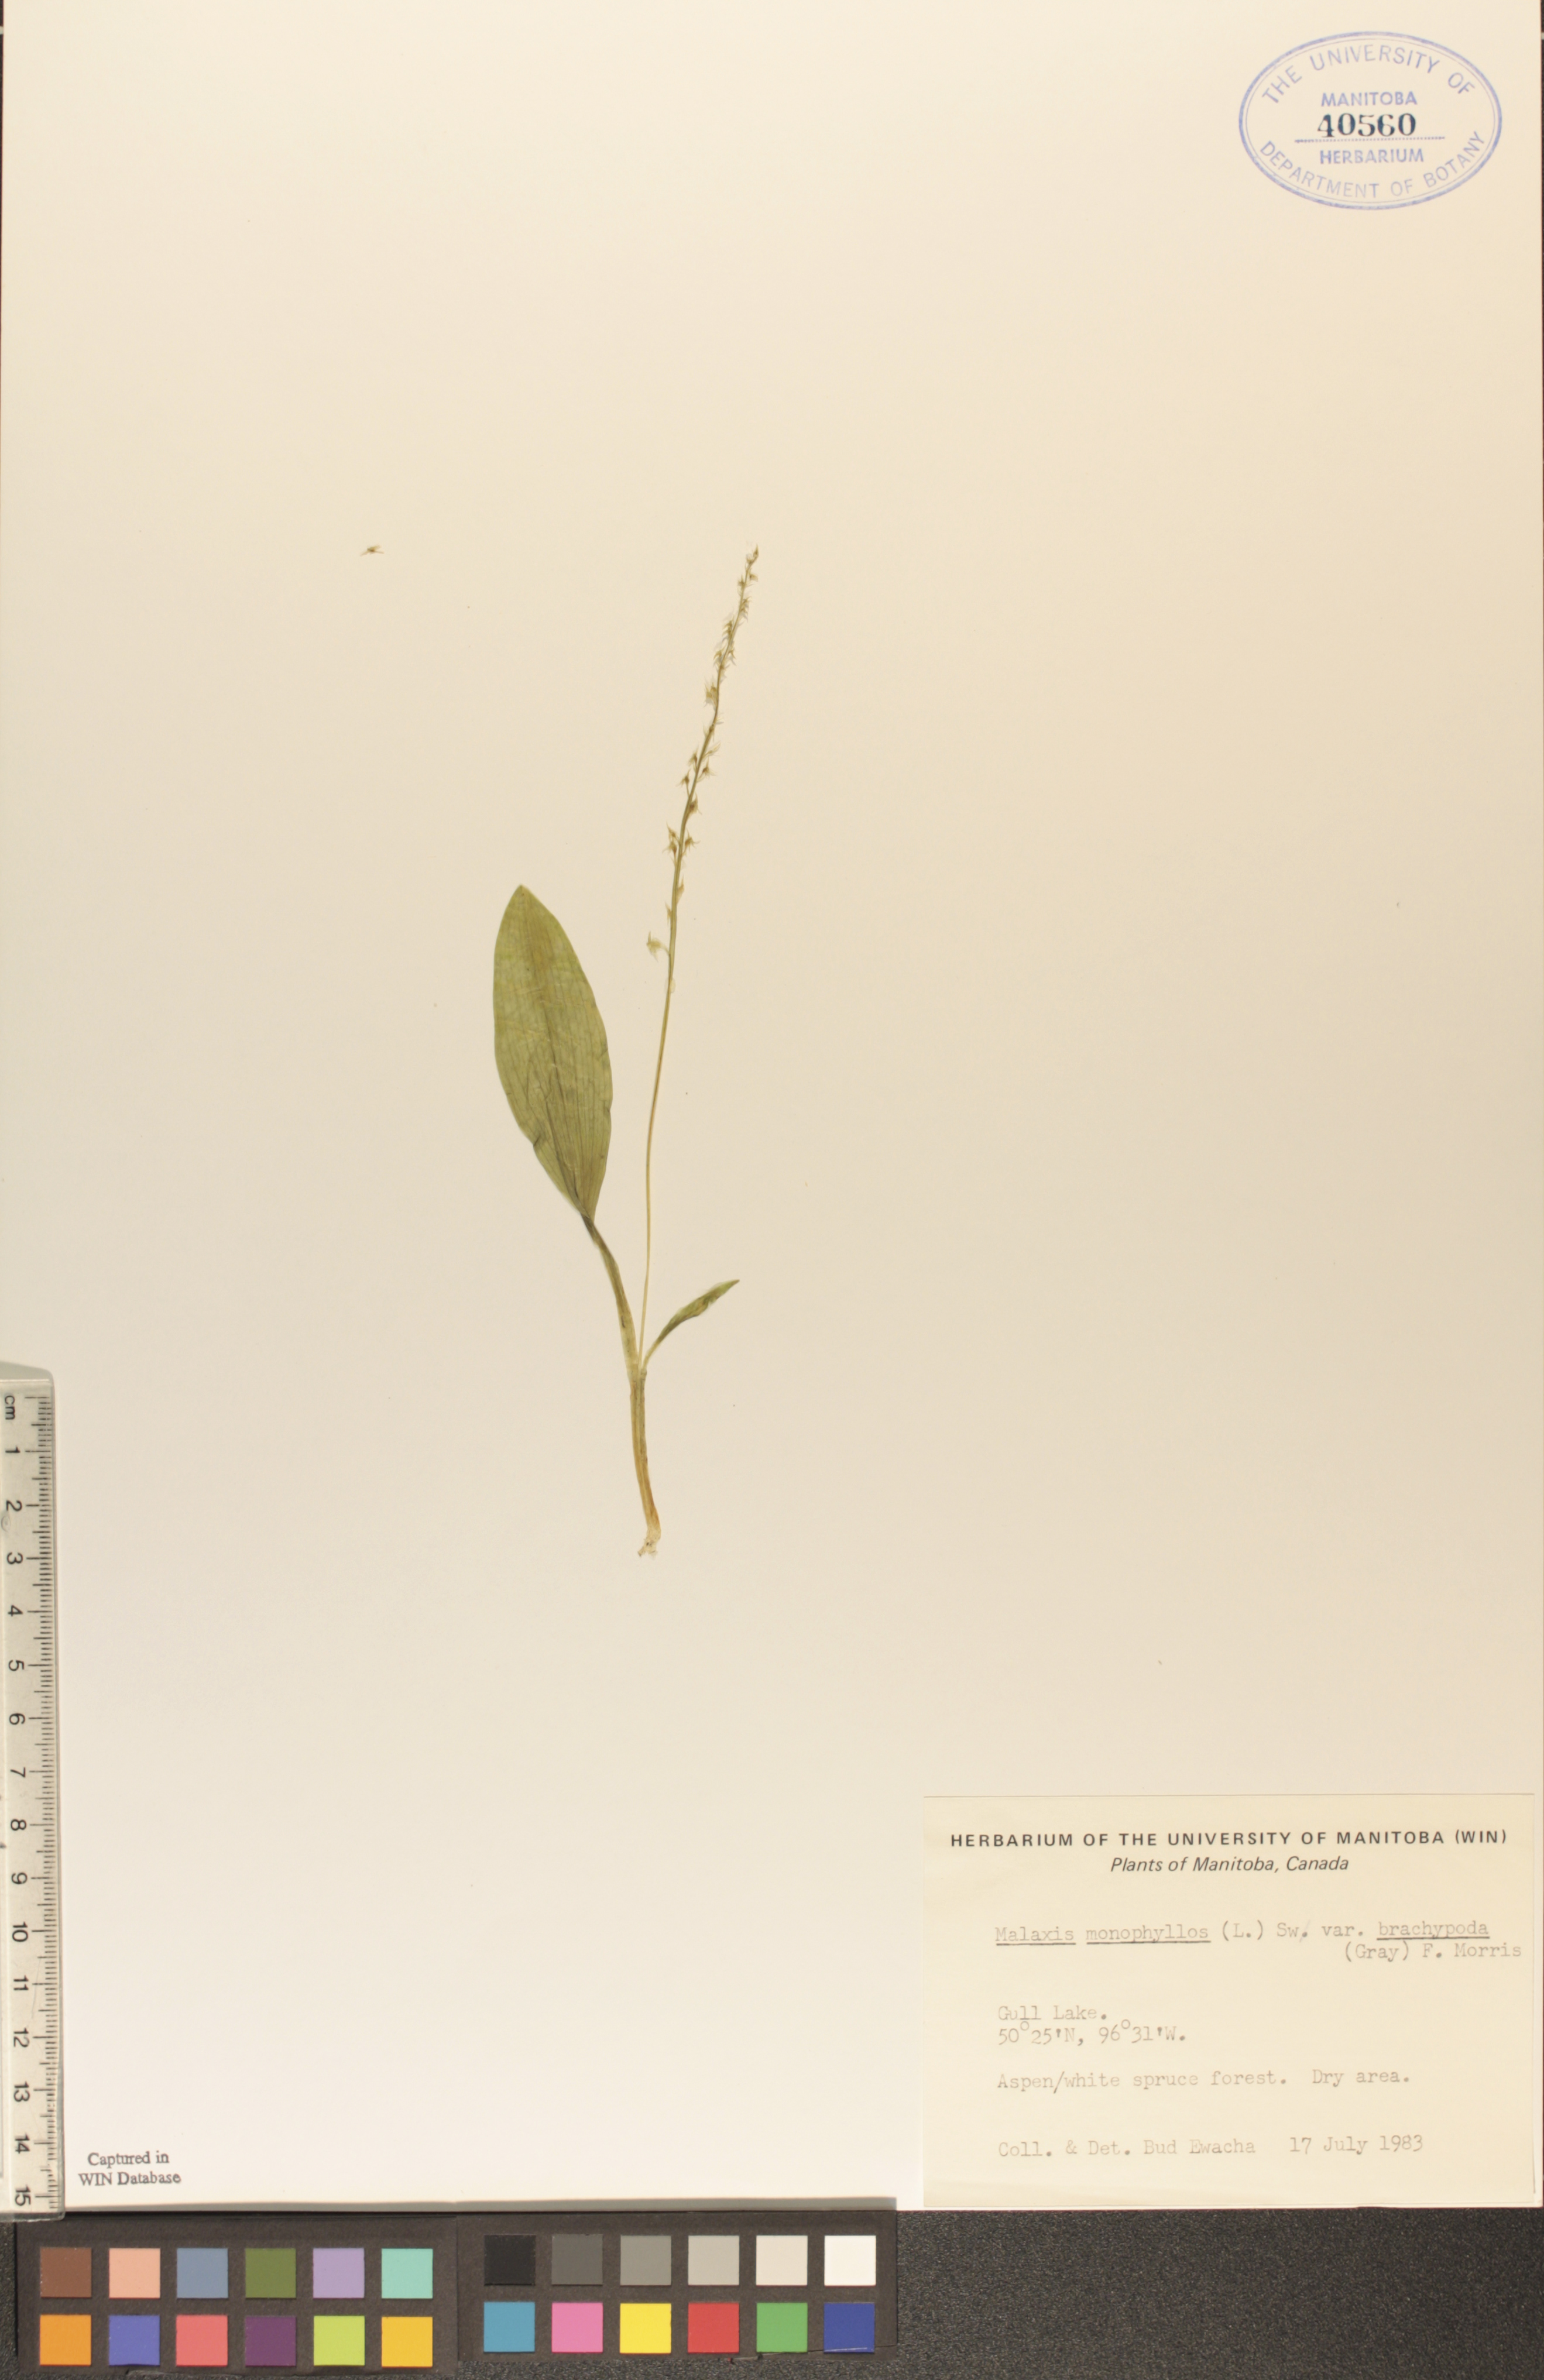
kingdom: Plantae
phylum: Tracheophyta
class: Liliopsida
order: Asparagales
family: Orchidaceae
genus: Malaxis
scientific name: Malaxis monophyllos
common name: White adder's-mouth
